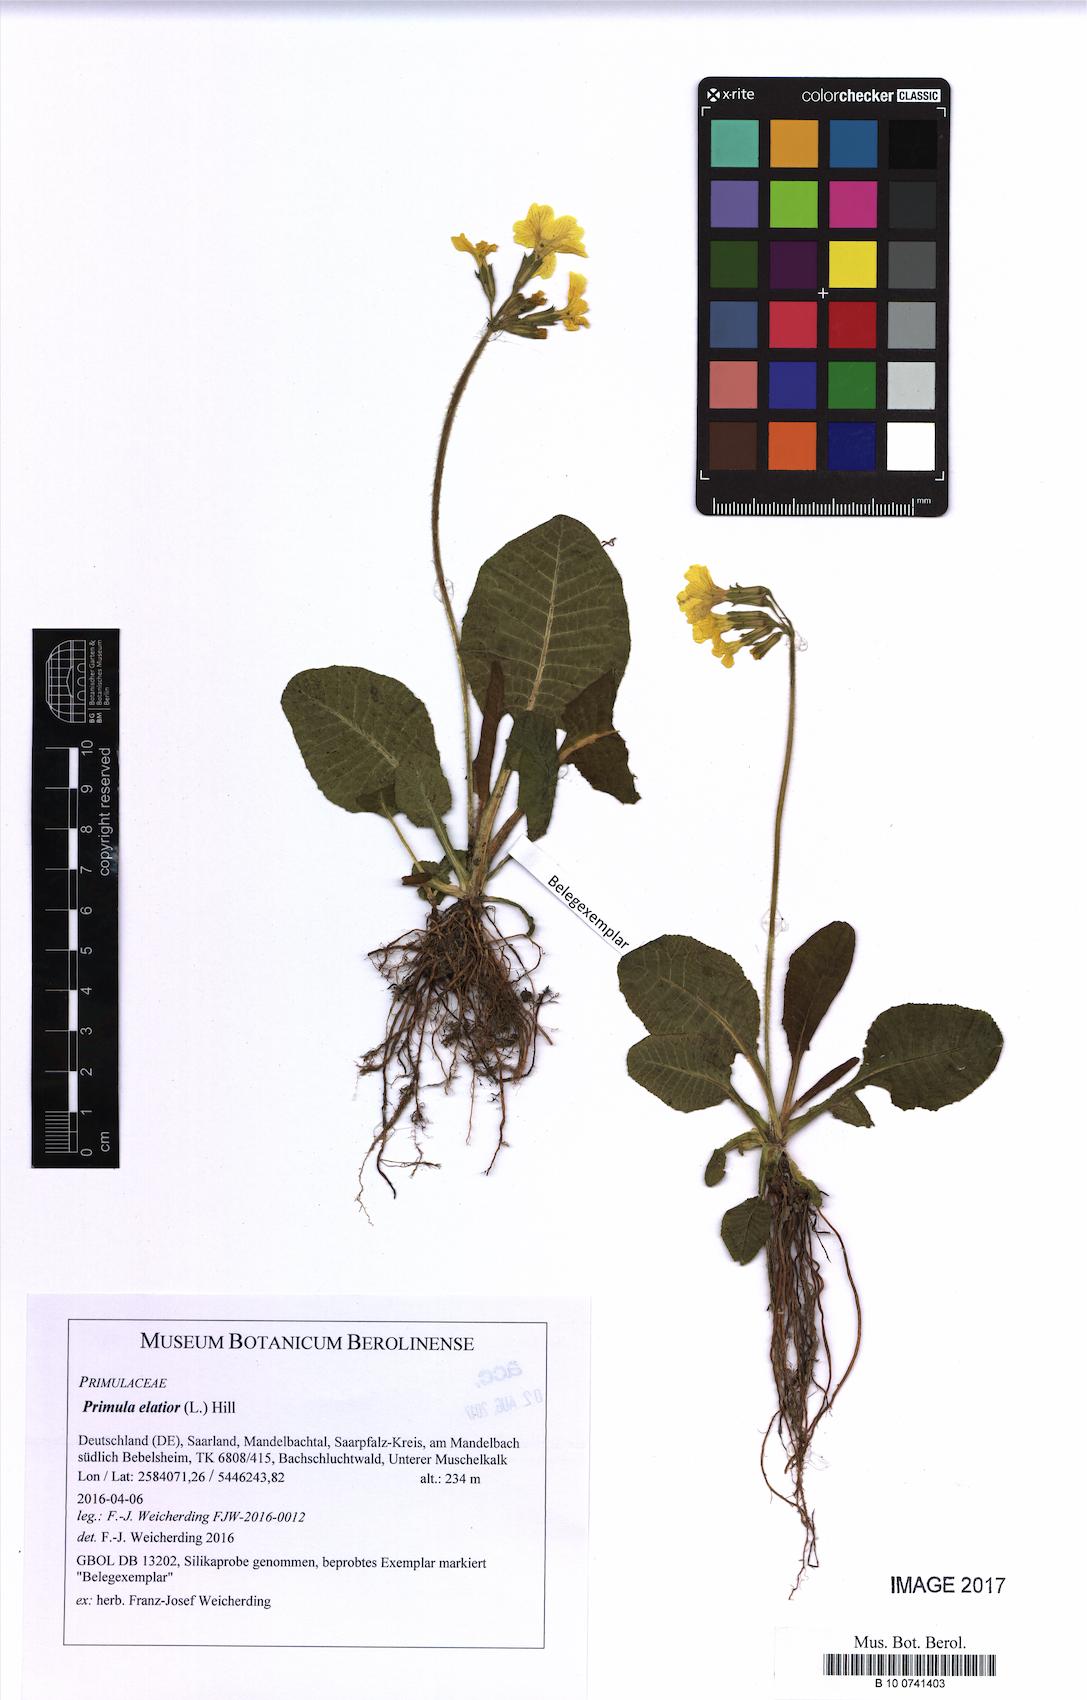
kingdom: Plantae
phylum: Tracheophyta
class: Magnoliopsida
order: Ericales
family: Primulaceae
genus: Primula
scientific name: Primula elatior
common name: Oxlip
